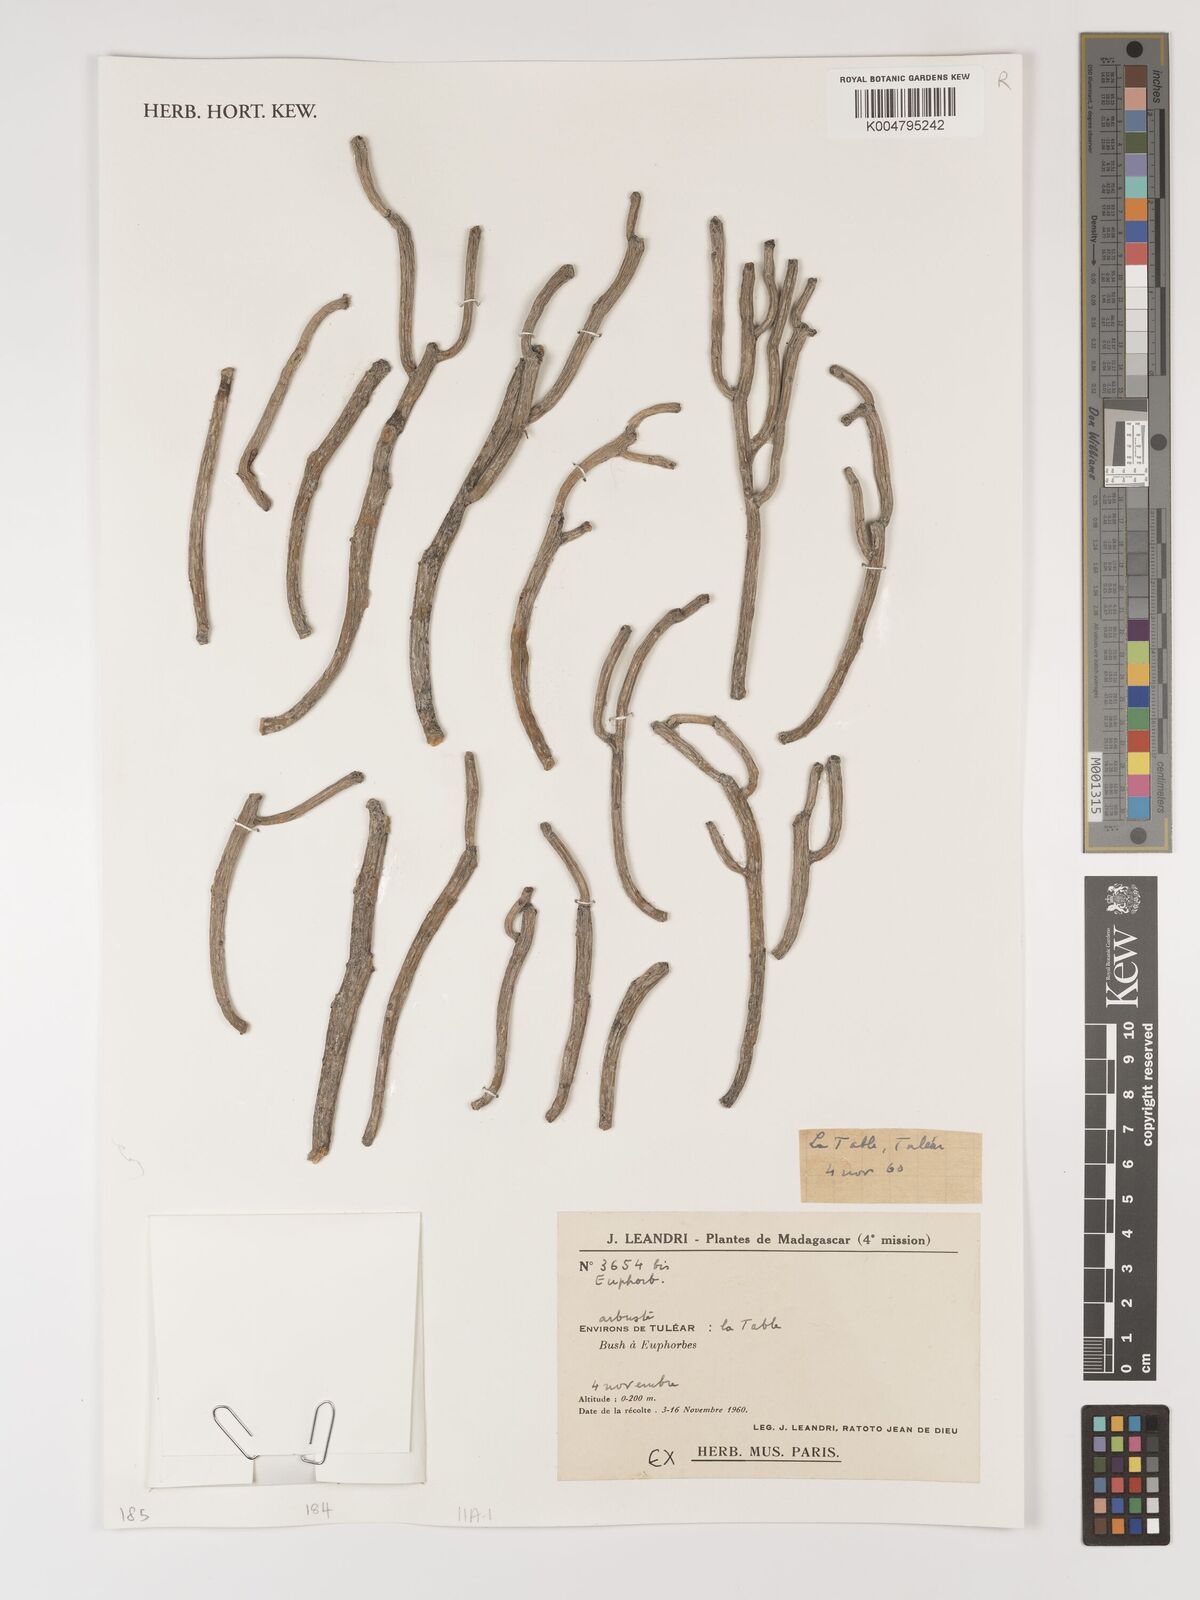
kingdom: Plantae
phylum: Tracheophyta
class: Magnoliopsida
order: Malpighiales
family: Euphorbiaceae
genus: Euphorbia
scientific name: Euphorbia
